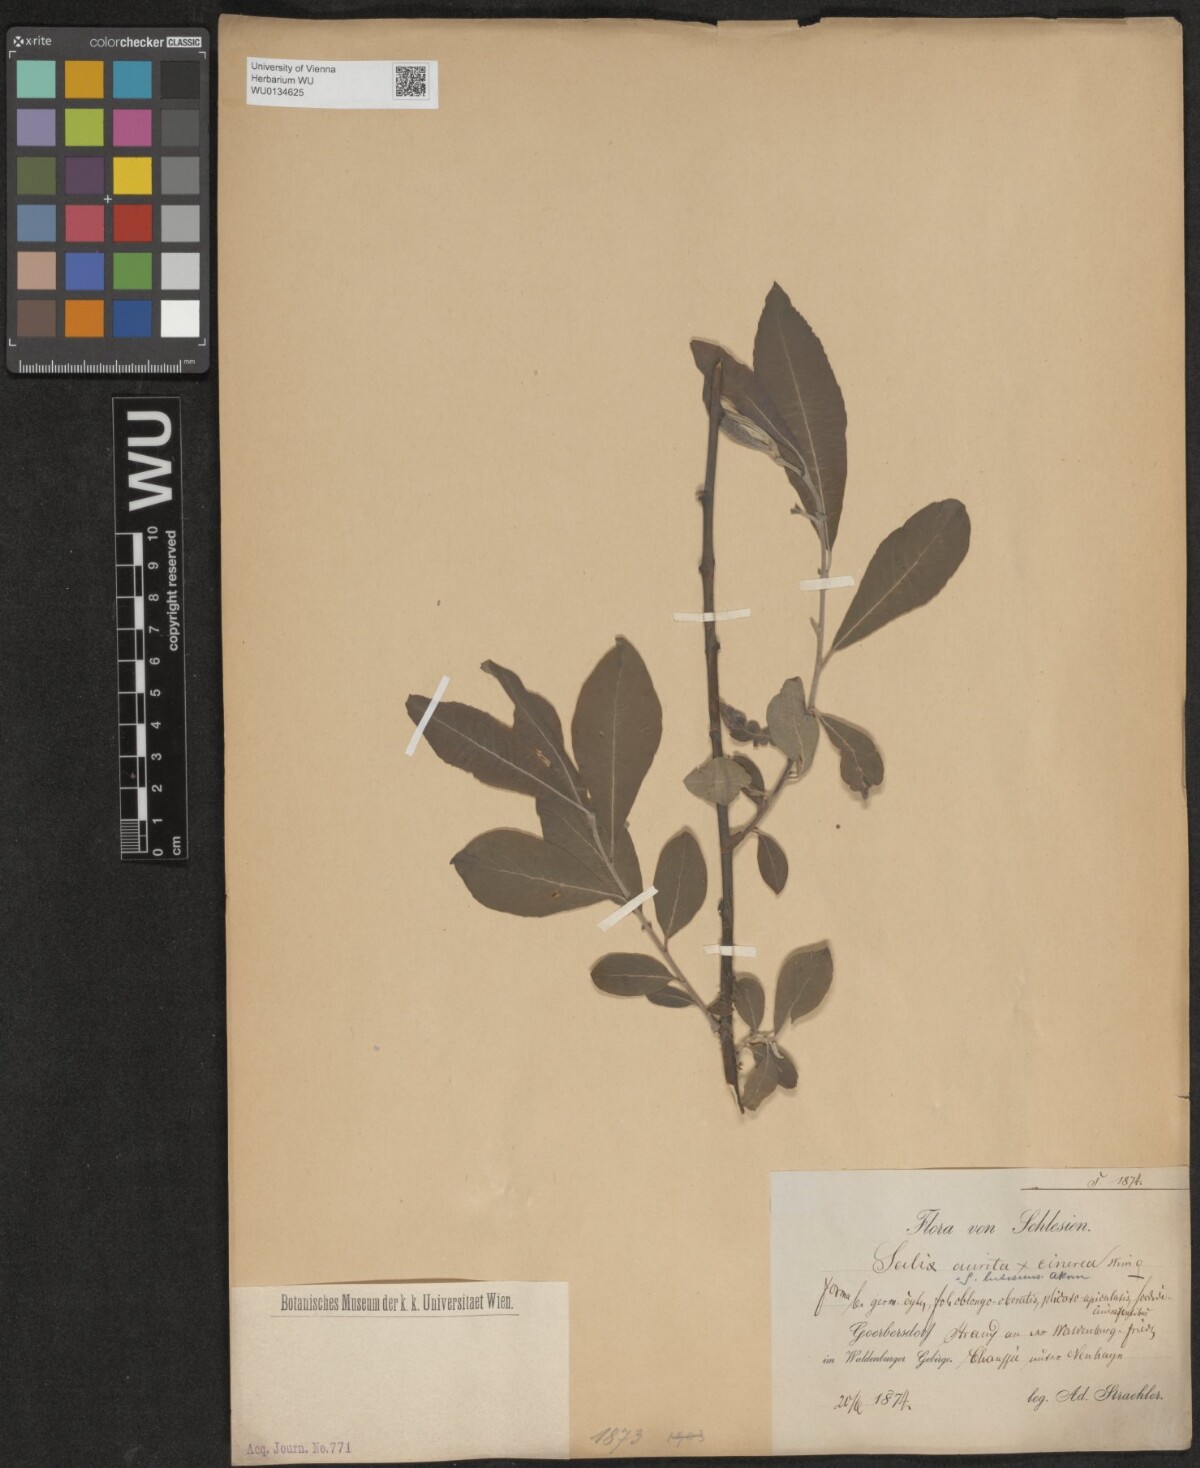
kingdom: Plantae
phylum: Tracheophyta
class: Magnoliopsida
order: Malpighiales
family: Salicaceae
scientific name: Salicaceae
